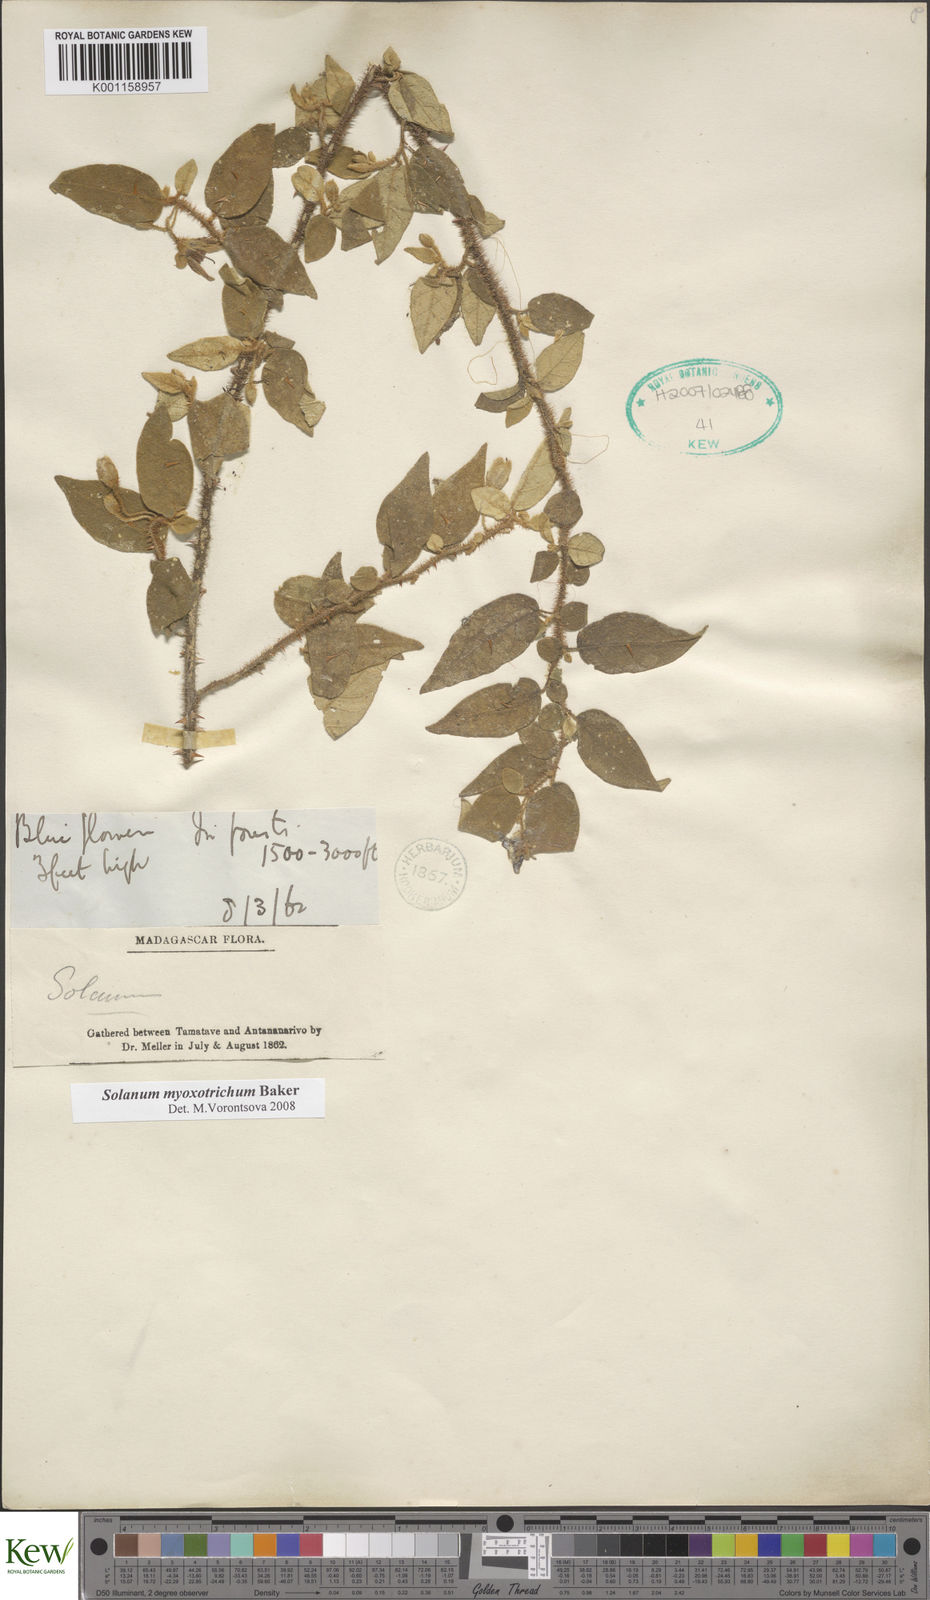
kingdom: Plantae
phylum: Tracheophyta
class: Magnoliopsida
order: Solanales
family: Solanaceae
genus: Solanum
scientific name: Solanum myoxotrichum
